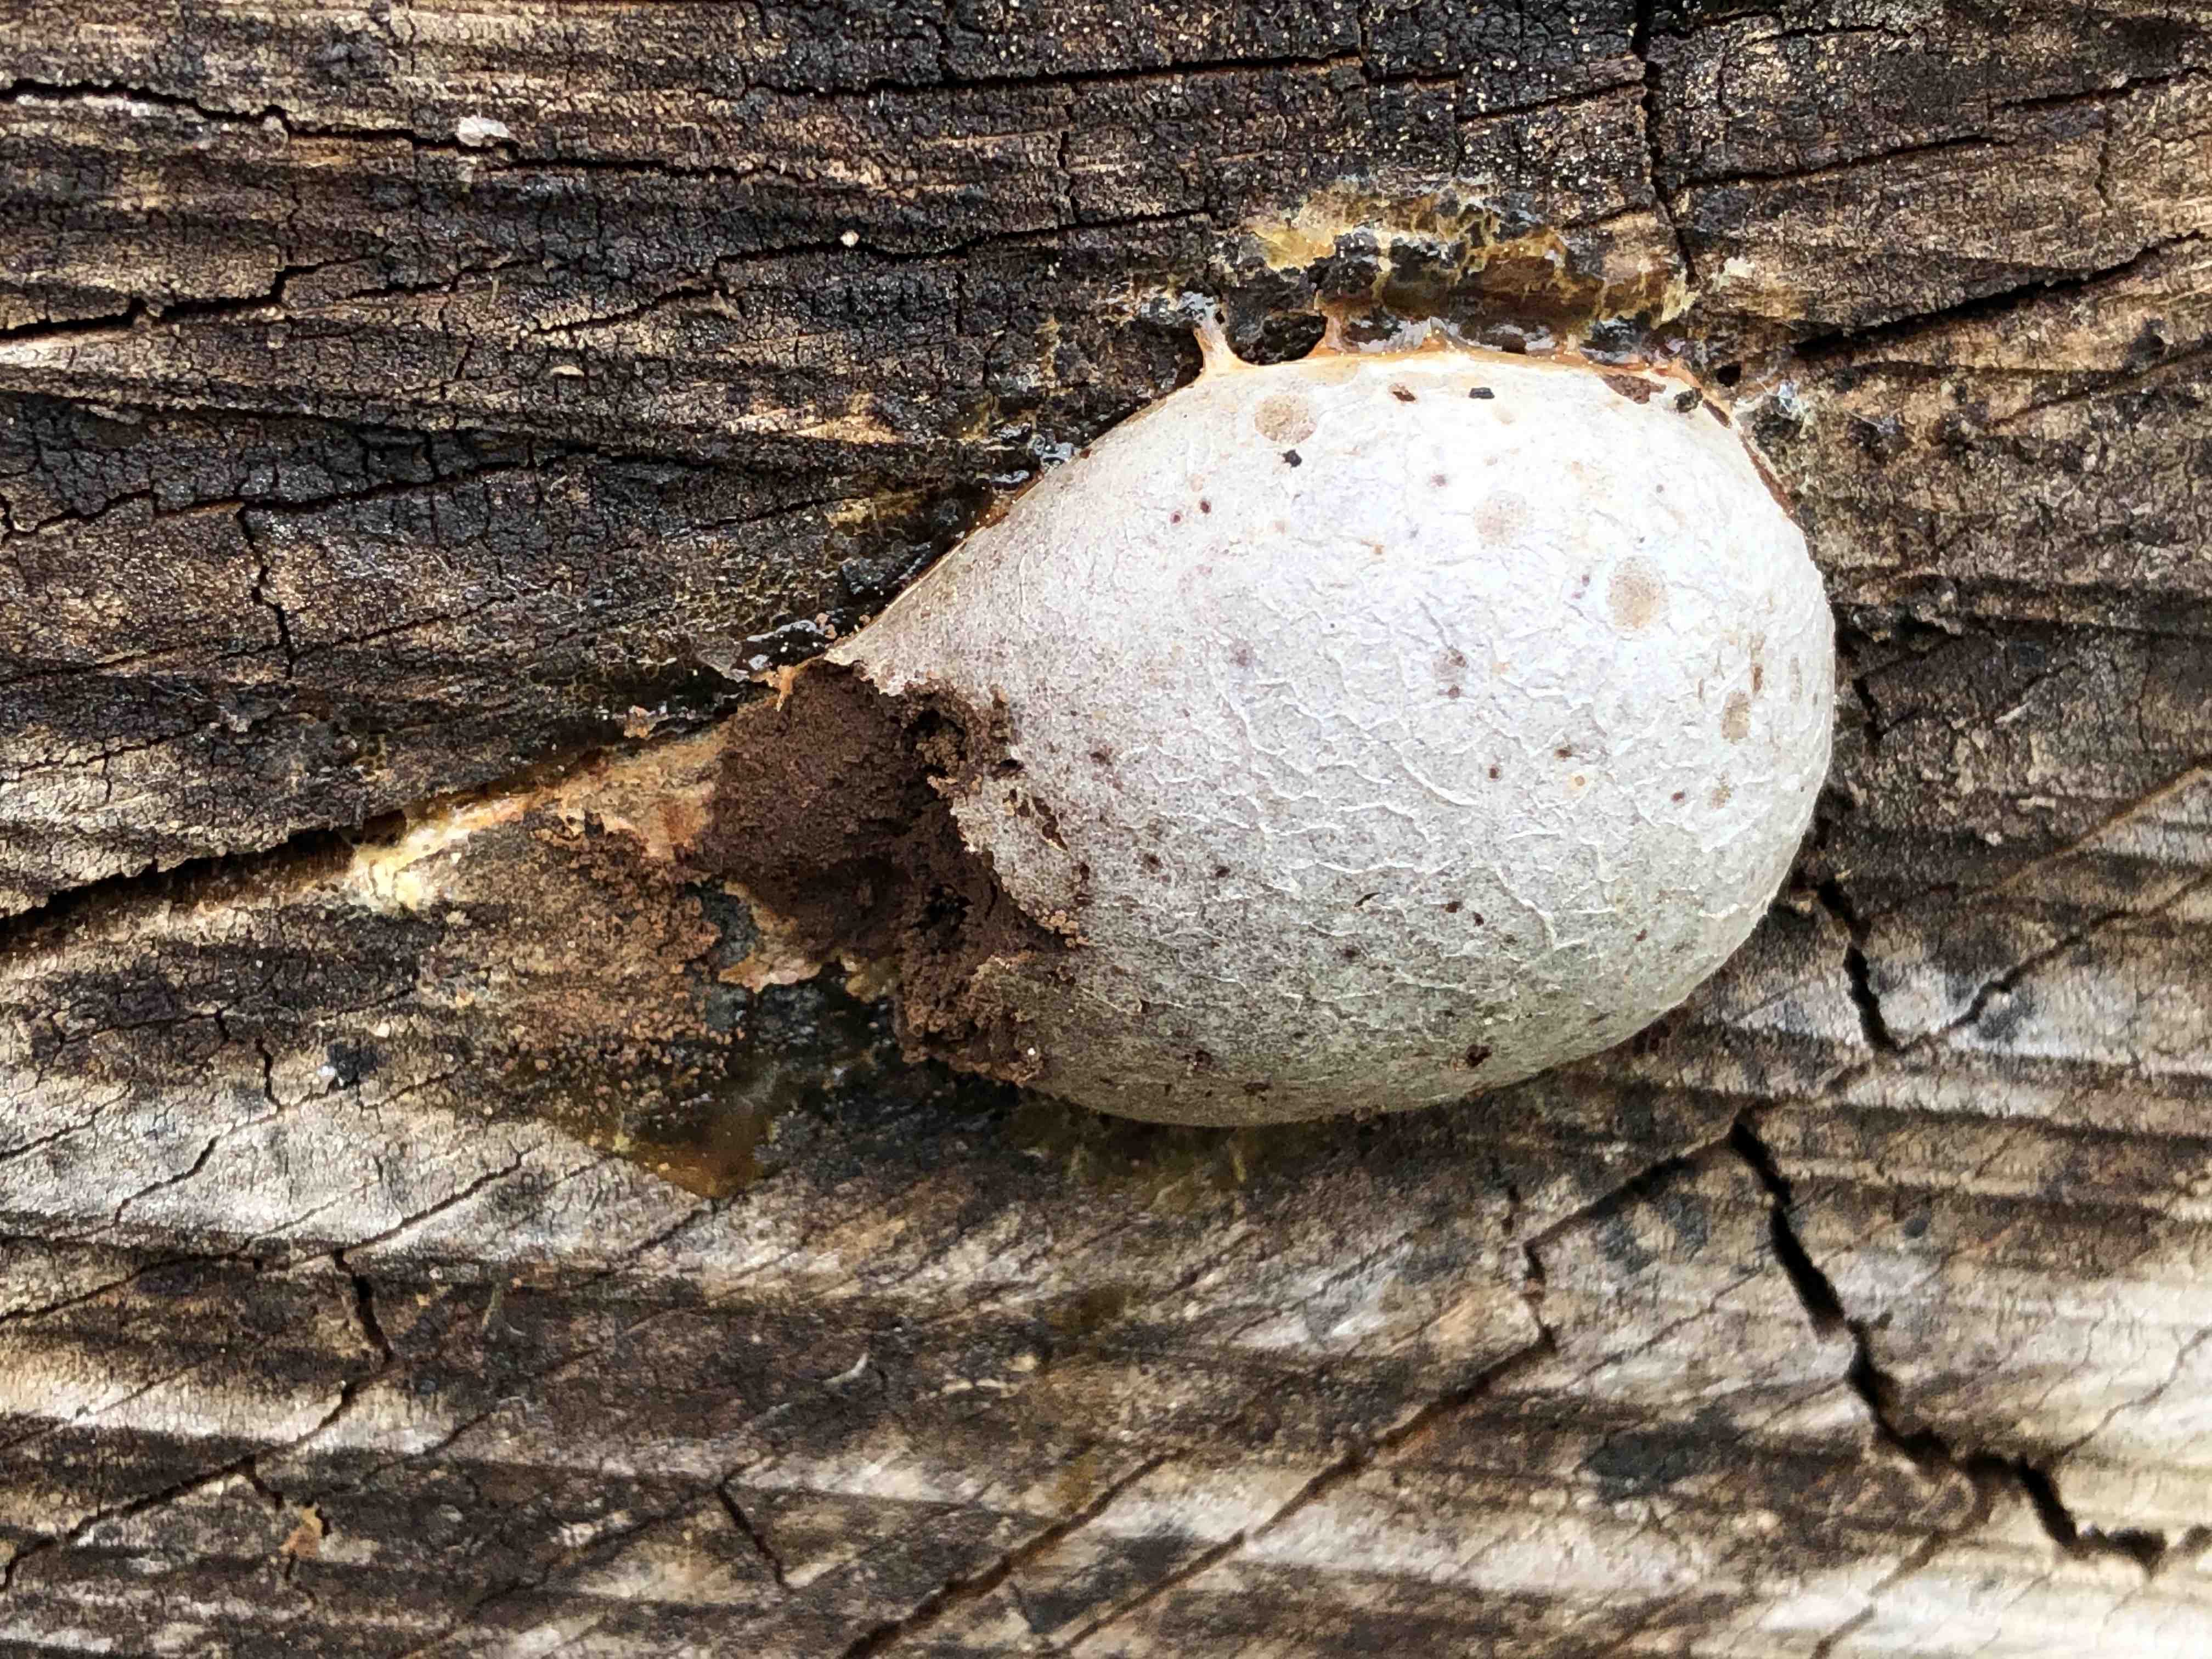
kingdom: Protozoa
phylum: Mycetozoa
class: Myxomycetes
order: Cribrariales
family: Tubiferaceae
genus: Reticularia
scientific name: Reticularia lycoperdon
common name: skinnende støvpude
